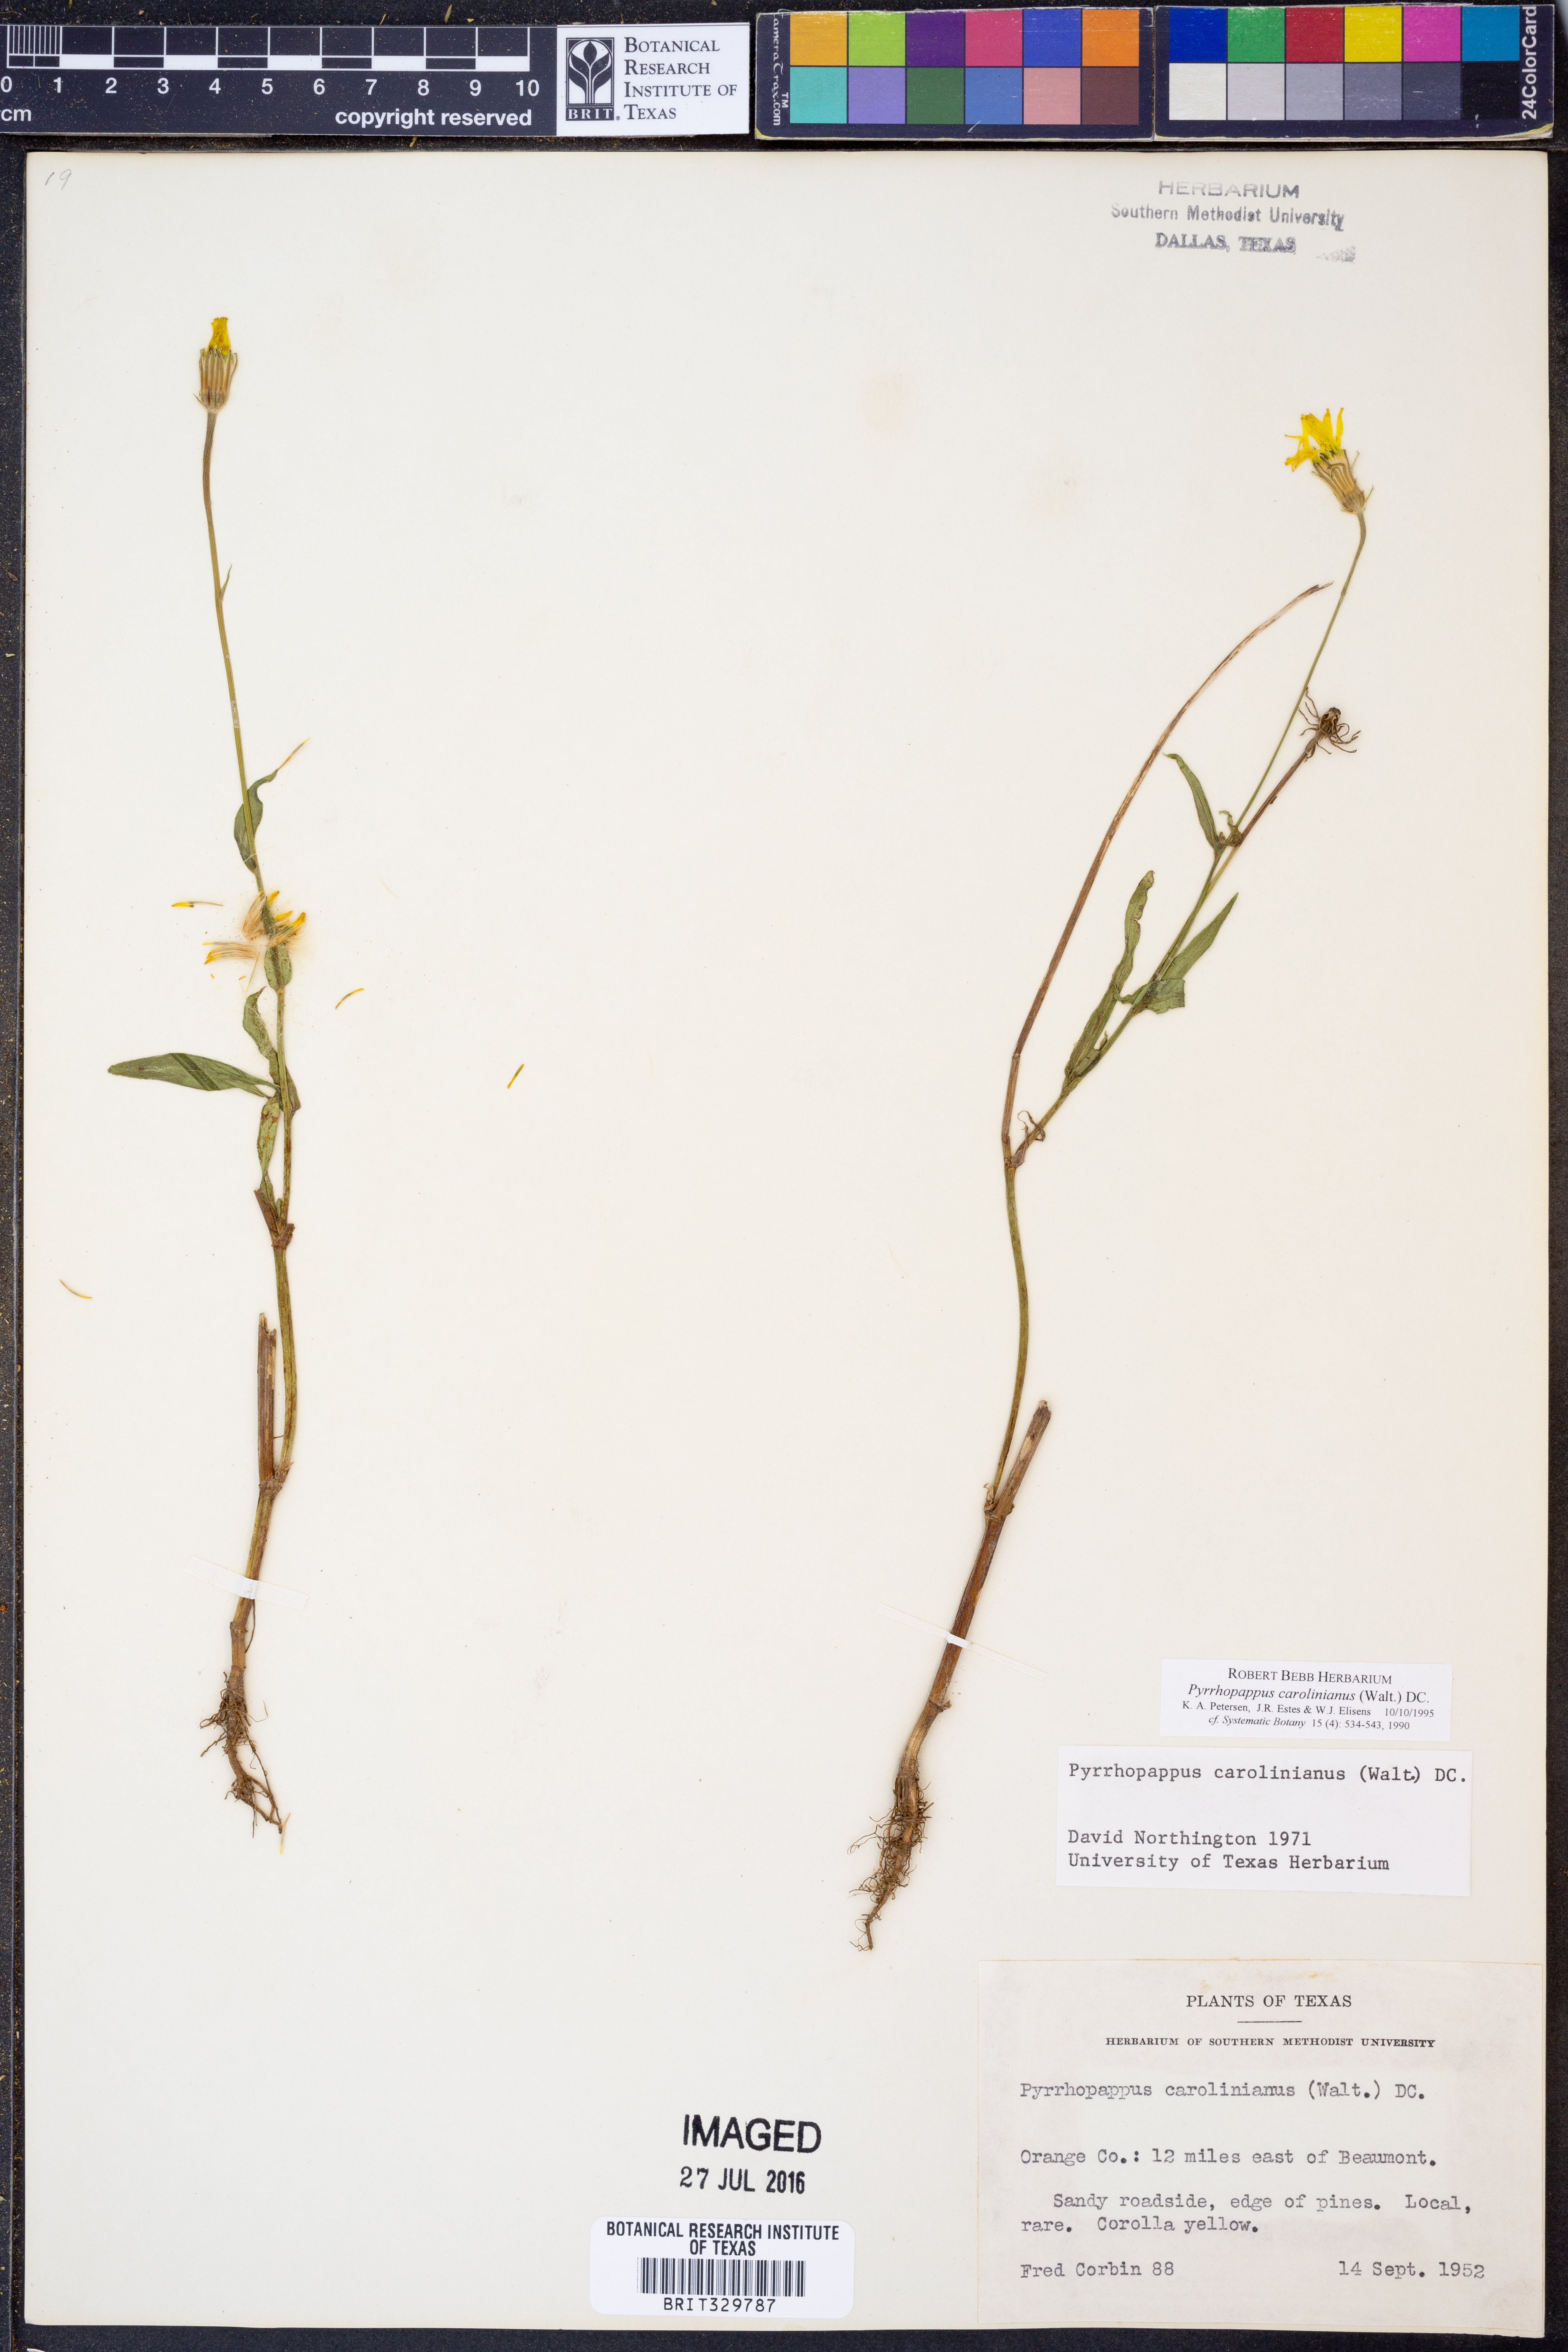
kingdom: Plantae
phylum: Tracheophyta
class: Magnoliopsida
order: Asterales
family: Asteraceae
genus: Pyrrhopappus
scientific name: Pyrrhopappus carolinianus
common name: Carolina desert-chicory
